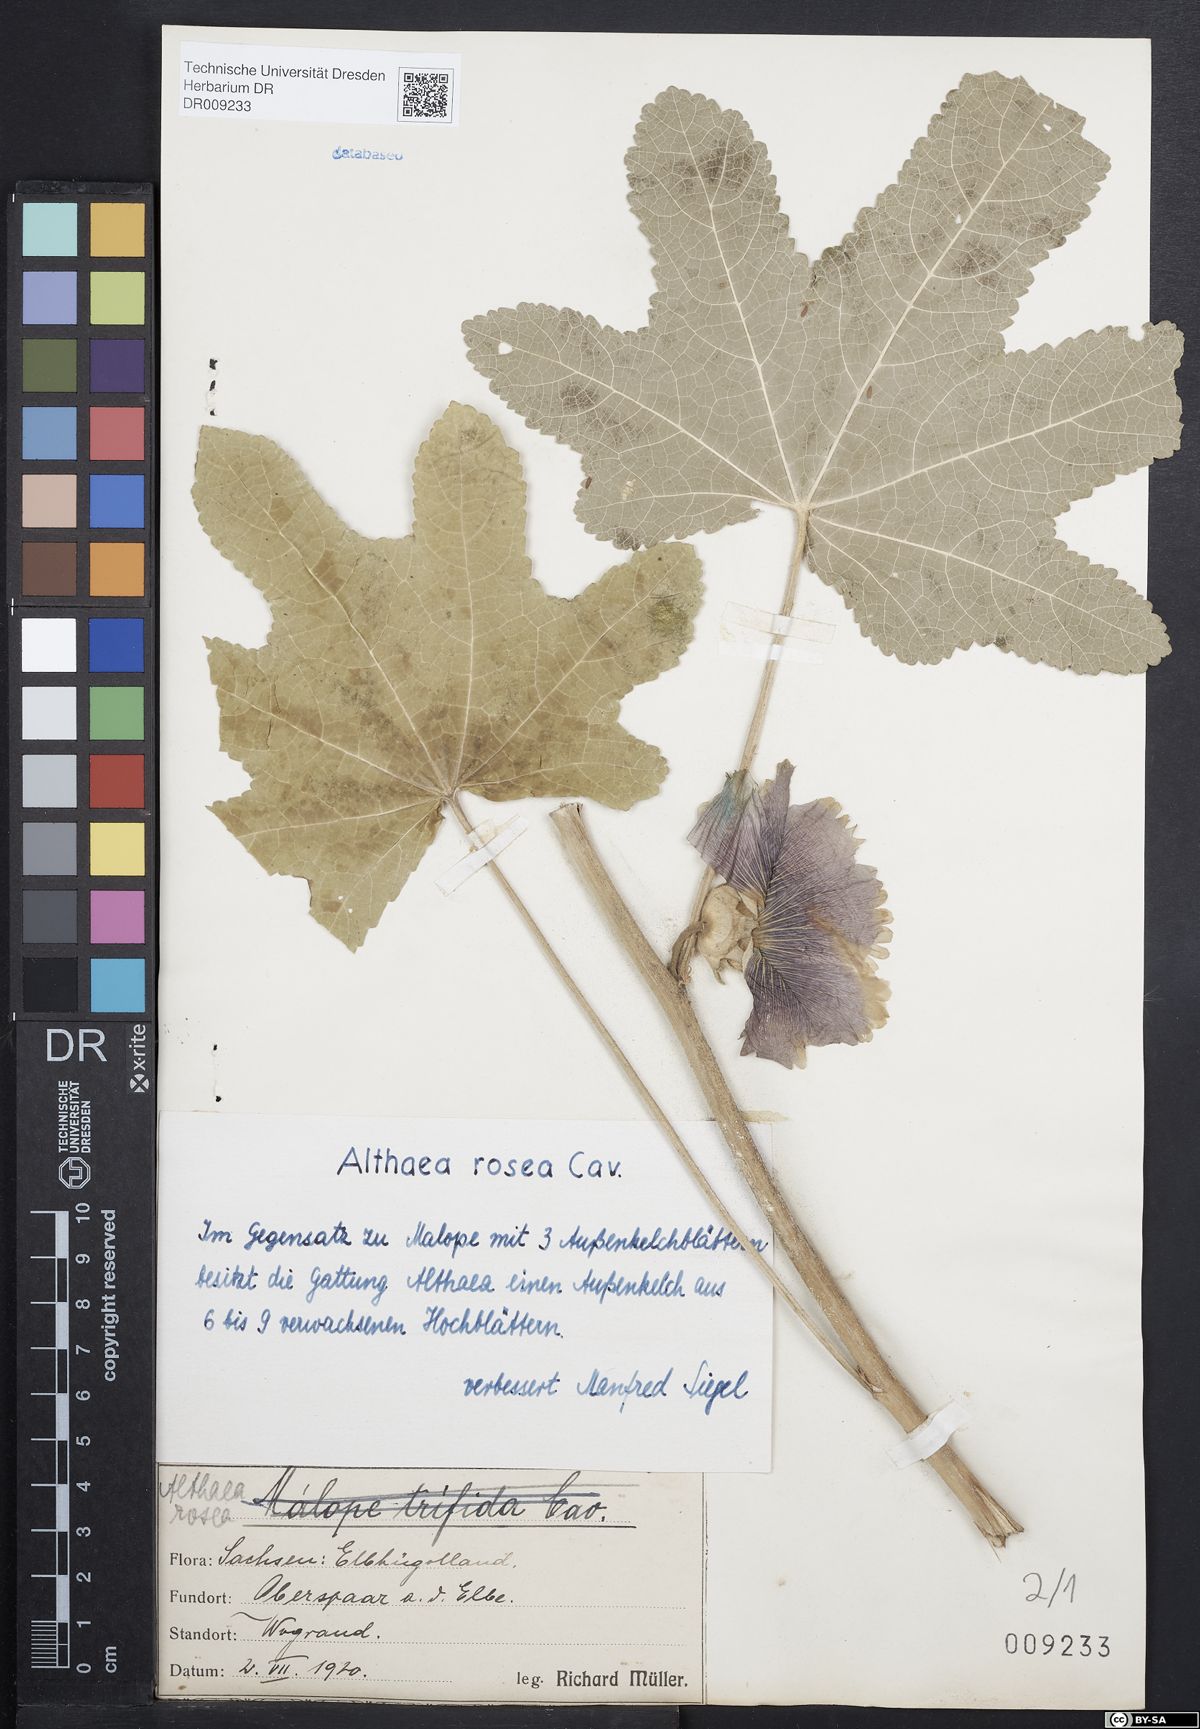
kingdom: Plantae
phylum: Tracheophyta
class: Magnoliopsida
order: Malvales
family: Malvaceae
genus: Alcea
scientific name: Alcea rosea
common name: Hollyhock
